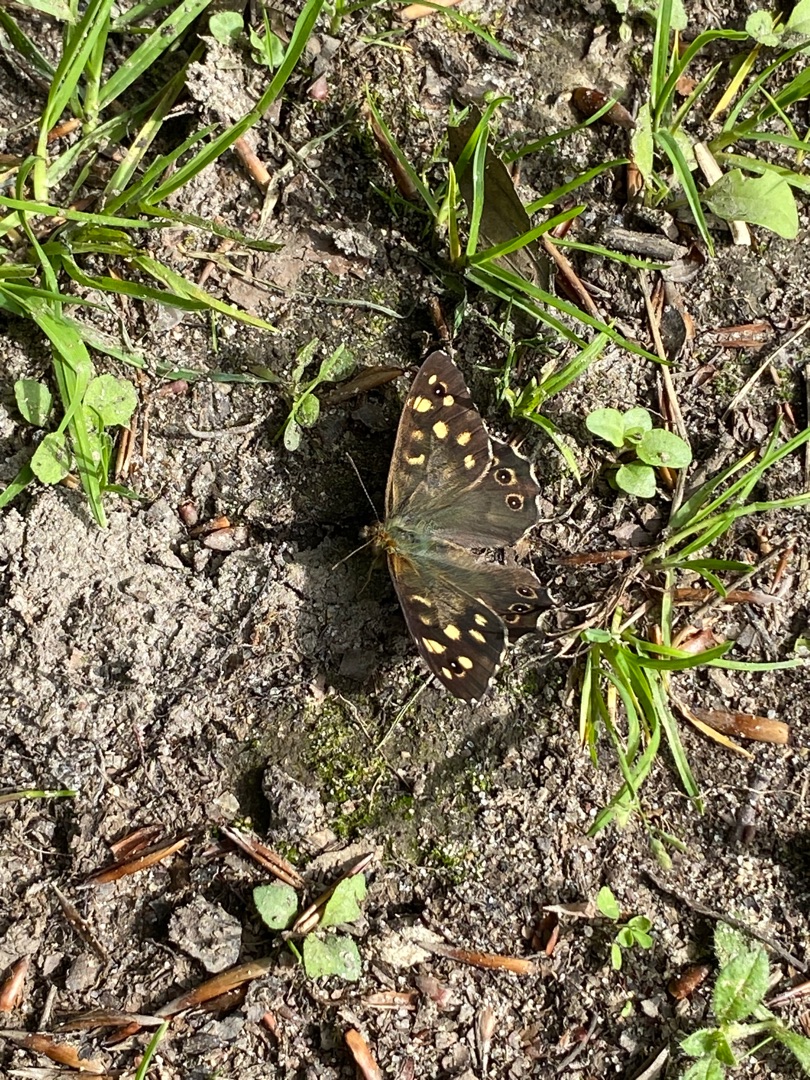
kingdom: Animalia
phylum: Arthropoda
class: Insecta
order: Lepidoptera
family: Nymphalidae
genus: Pararge
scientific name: Pararge aegeria
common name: Skovrandøje
